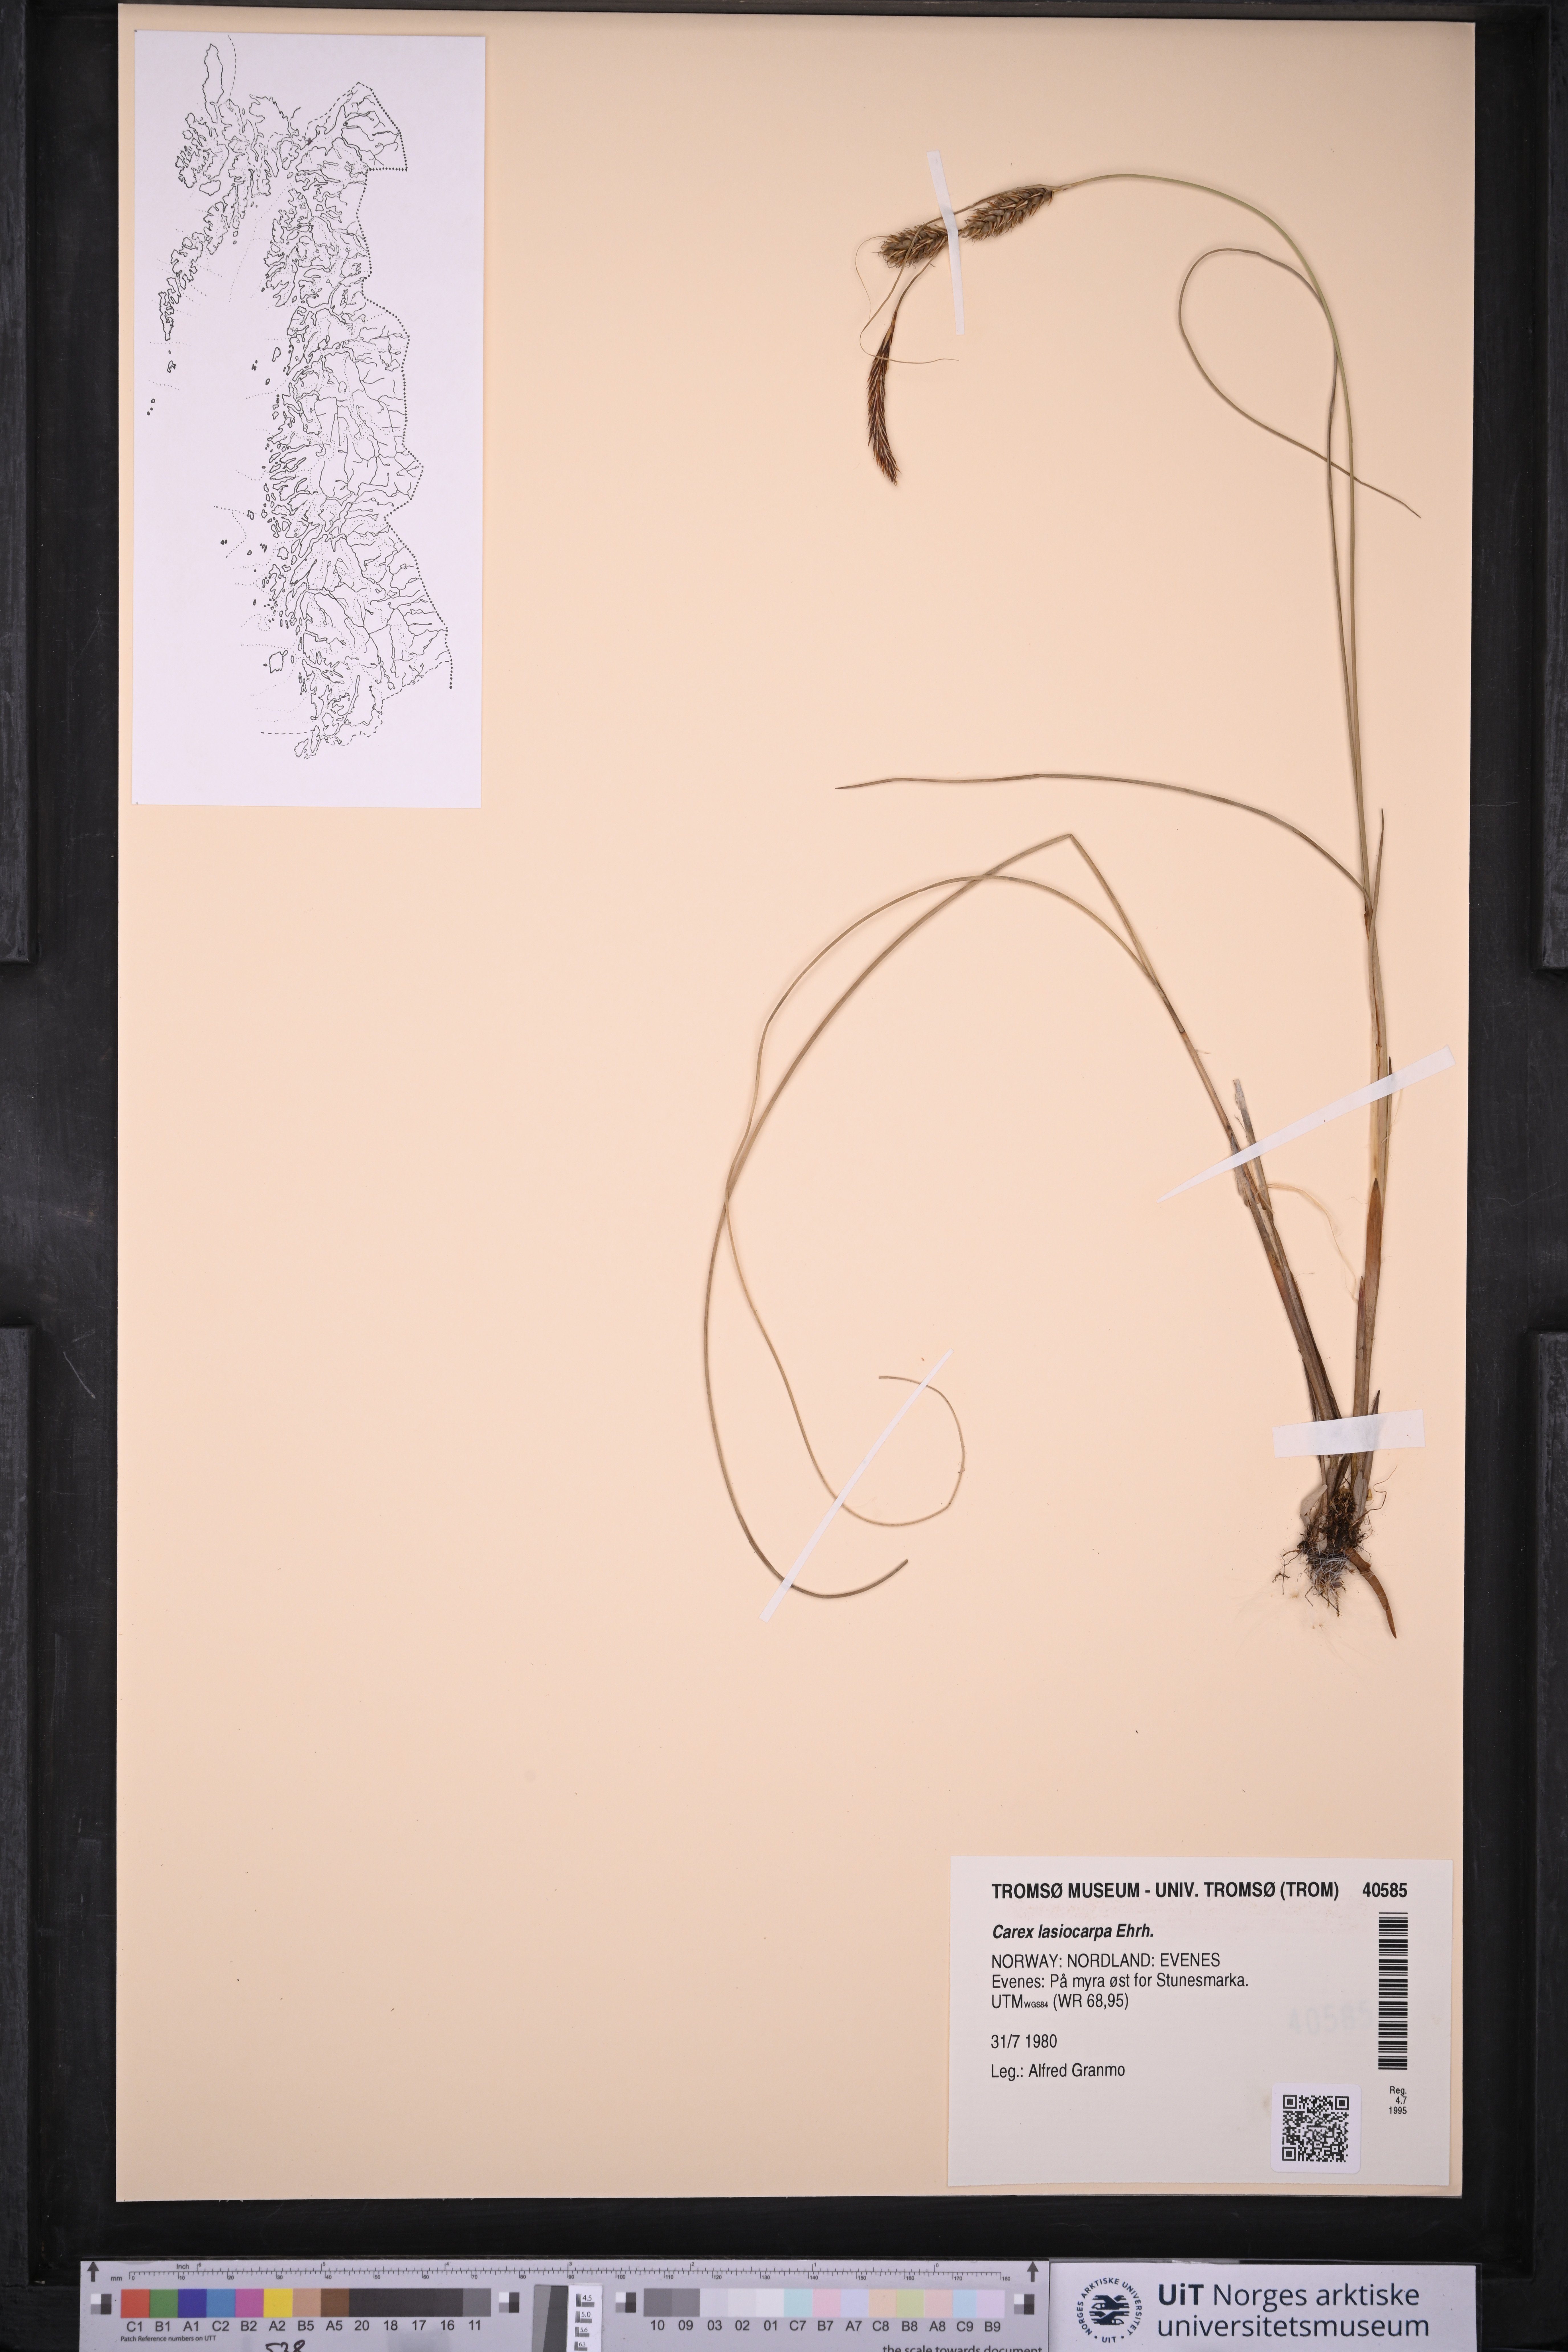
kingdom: Plantae
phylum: Tracheophyta
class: Liliopsida
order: Poales
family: Cyperaceae
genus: Carex
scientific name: Carex lasiocarpa
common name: Slender sedge
